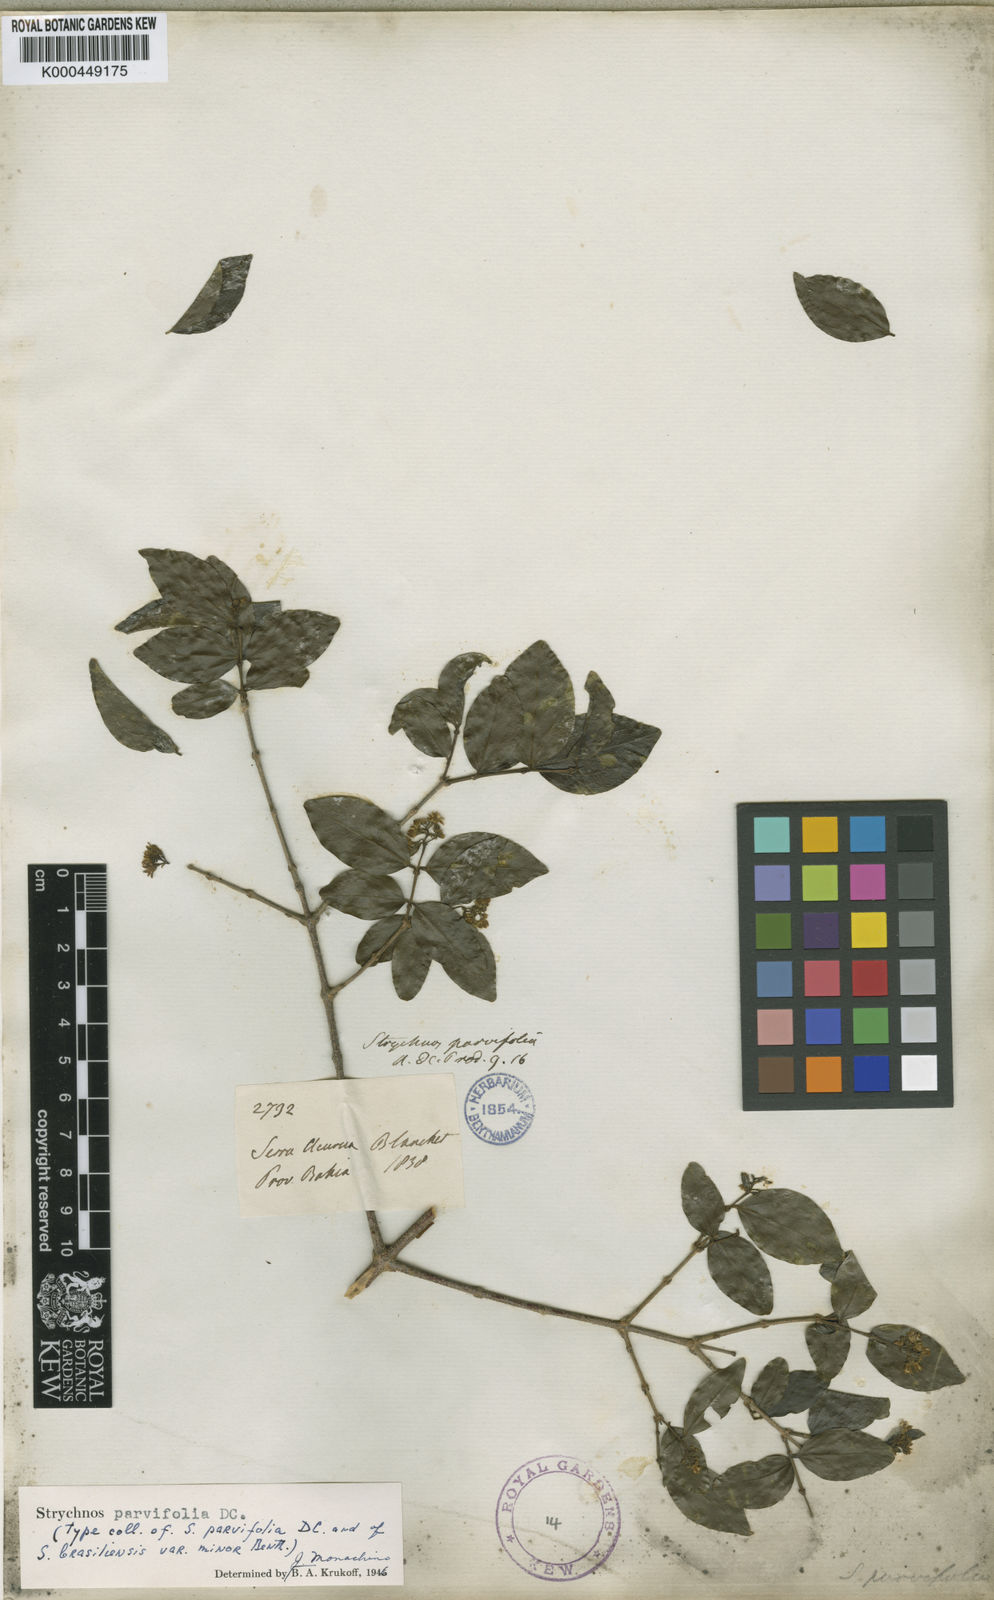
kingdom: Plantae
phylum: Tracheophyta
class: Magnoliopsida
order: Gentianales
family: Loganiaceae
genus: Strychnos
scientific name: Strychnos parvifolia
